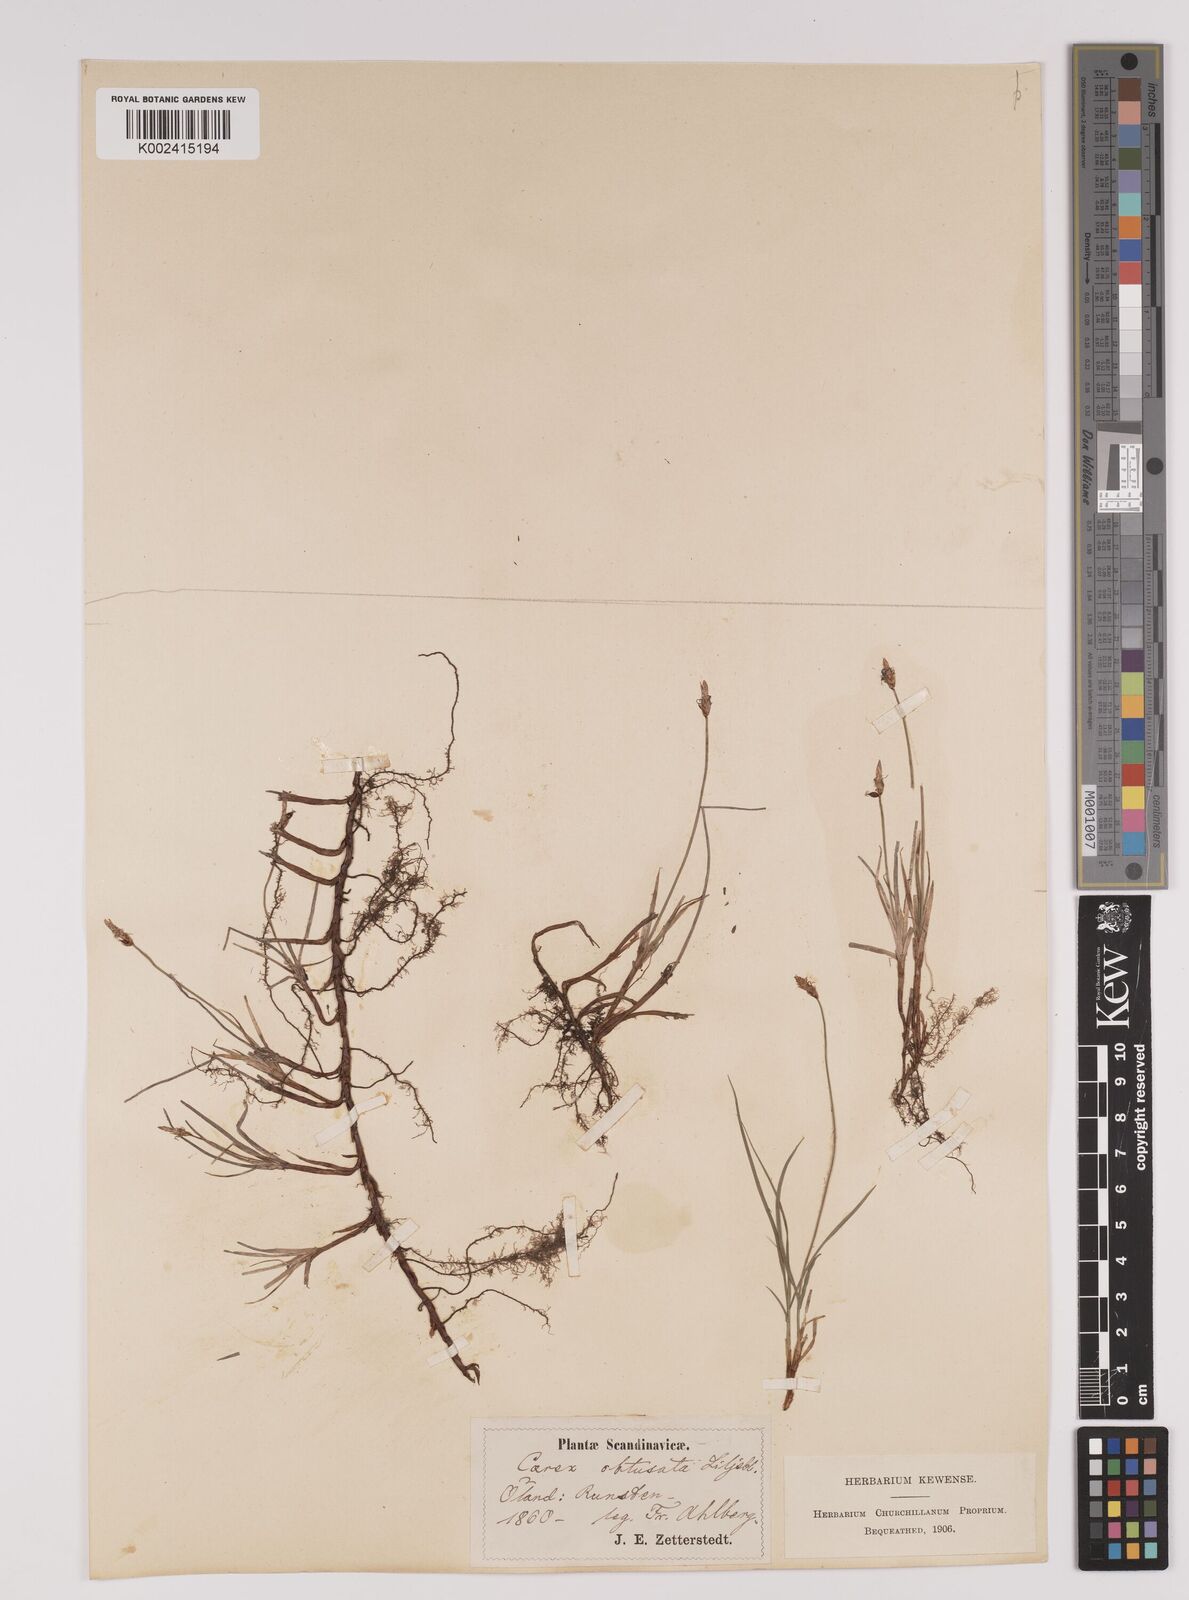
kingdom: Plantae
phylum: Tracheophyta
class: Liliopsida
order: Poales
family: Cyperaceae
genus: Carex
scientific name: Carex obtusata
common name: Blunt sedge
